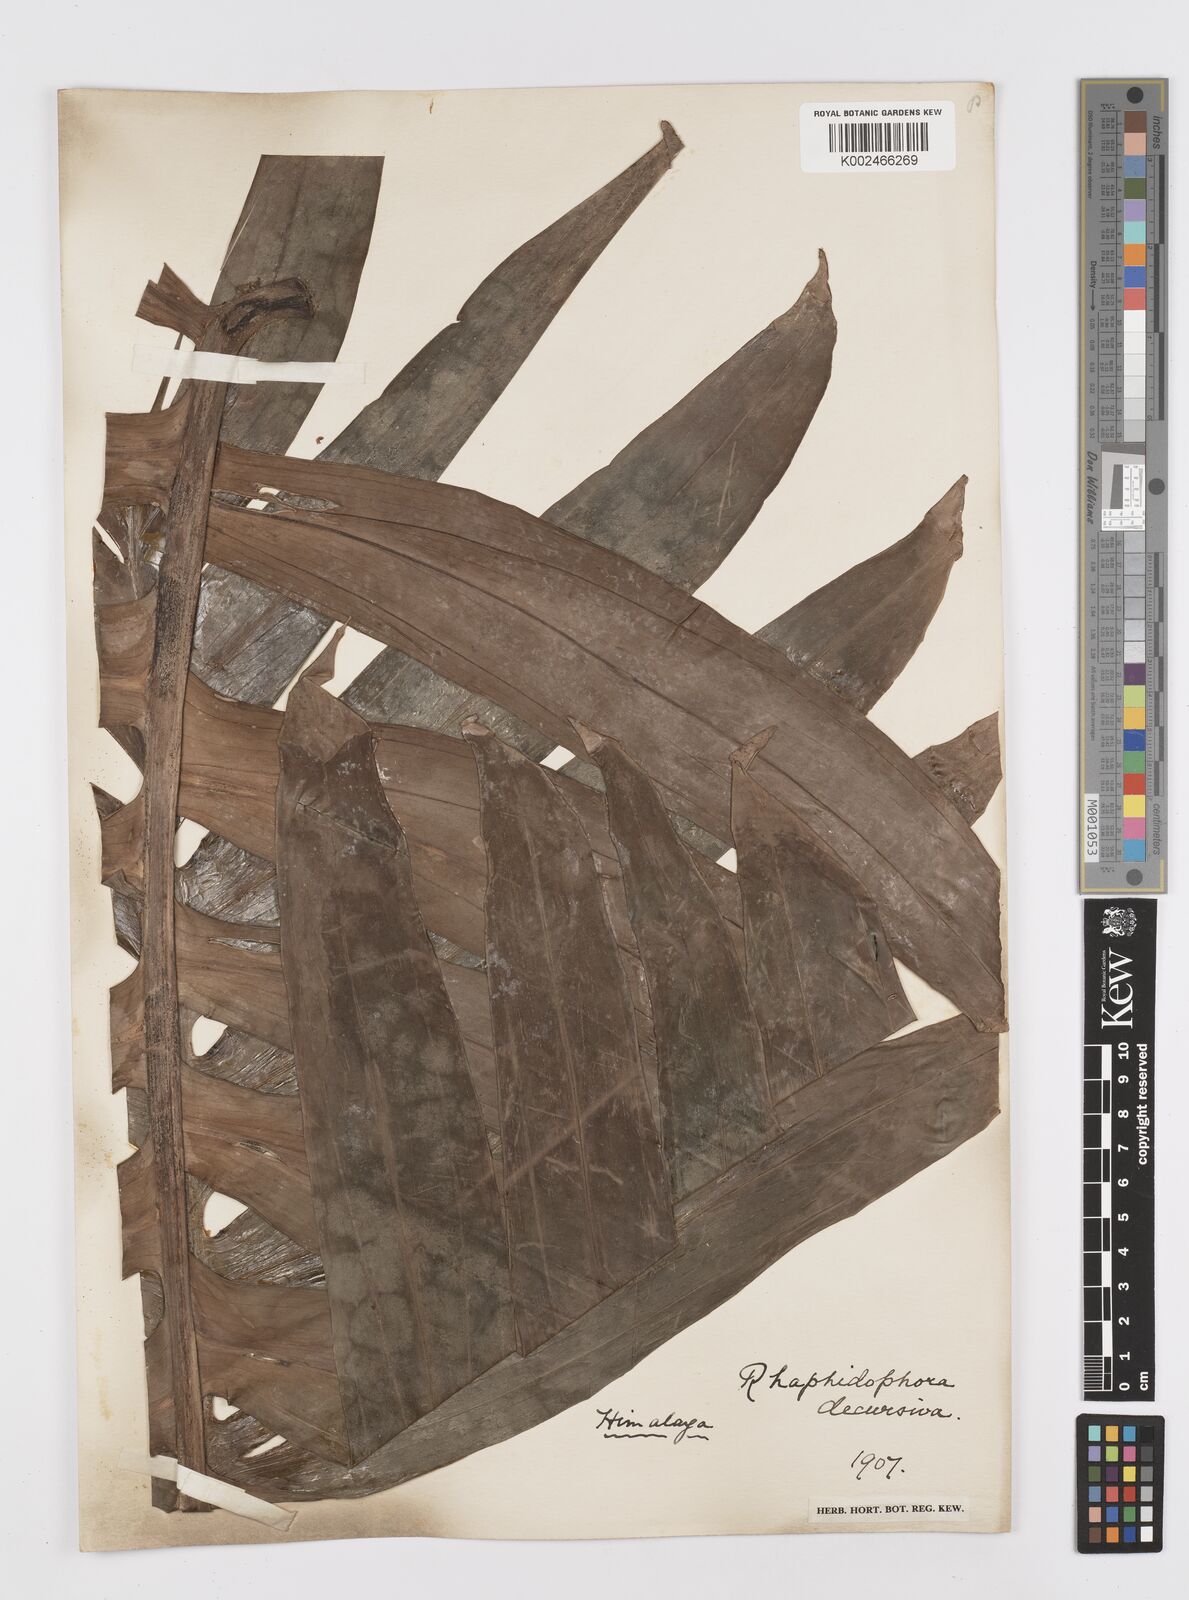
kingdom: Plantae
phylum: Tracheophyta
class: Liliopsida
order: Alismatales
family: Araceae
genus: Rhaphidophora
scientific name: Rhaphidophora decursiva
